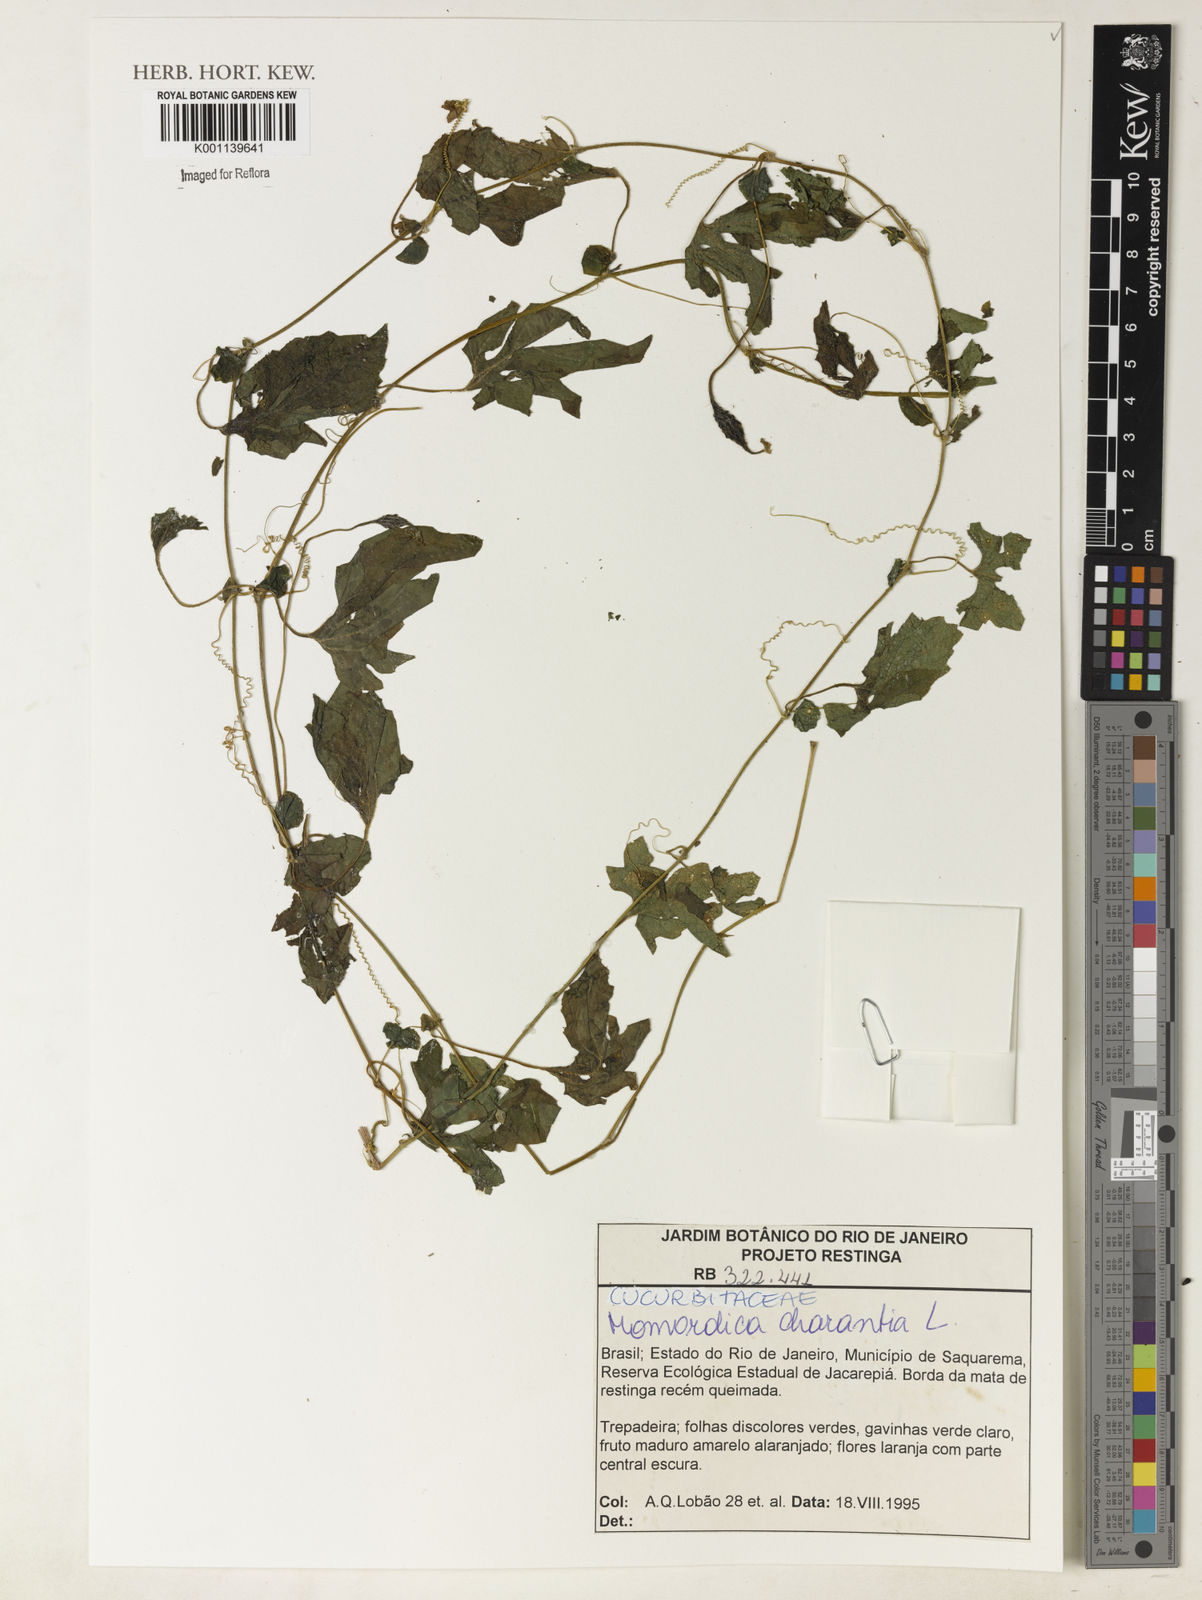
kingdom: Plantae
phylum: Tracheophyta
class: Magnoliopsida
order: Cucurbitales
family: Cucurbitaceae
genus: Momordica
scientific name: Momordica charantia
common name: Balsampear
